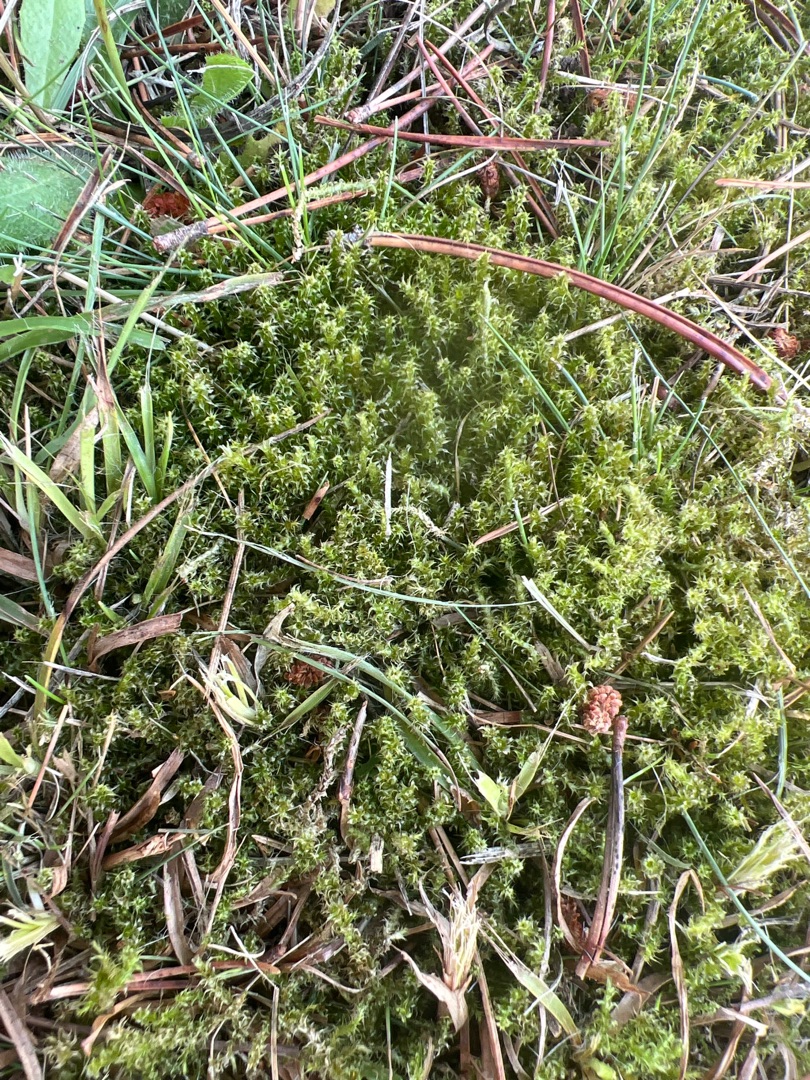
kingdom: Plantae
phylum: Bryophyta
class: Bryopsida
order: Hypnales
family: Hylocomiaceae
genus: Rhytidiadelphus
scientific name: Rhytidiadelphus squarrosus
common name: Plæne-kransemos
